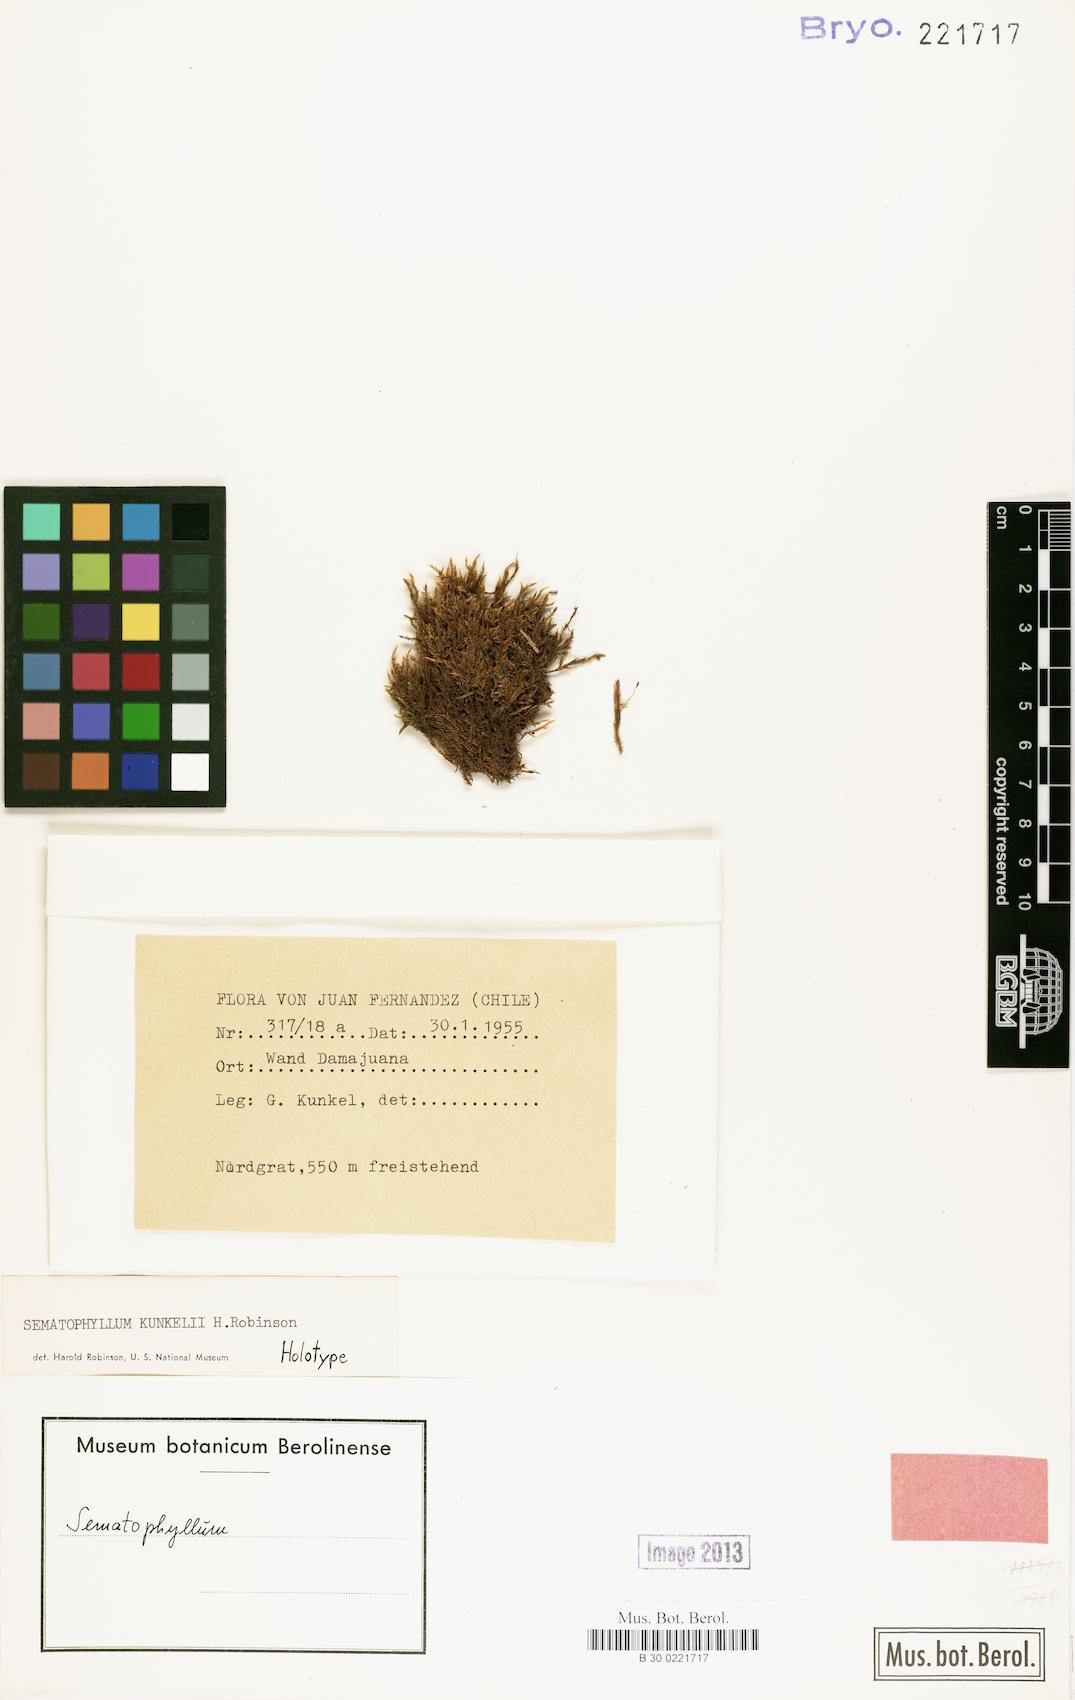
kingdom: Plantae
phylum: Bryophyta
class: Bryopsida
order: Hypnales
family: Sematophyllaceae
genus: Sematophyllum
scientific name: Sematophyllum kunkelii
